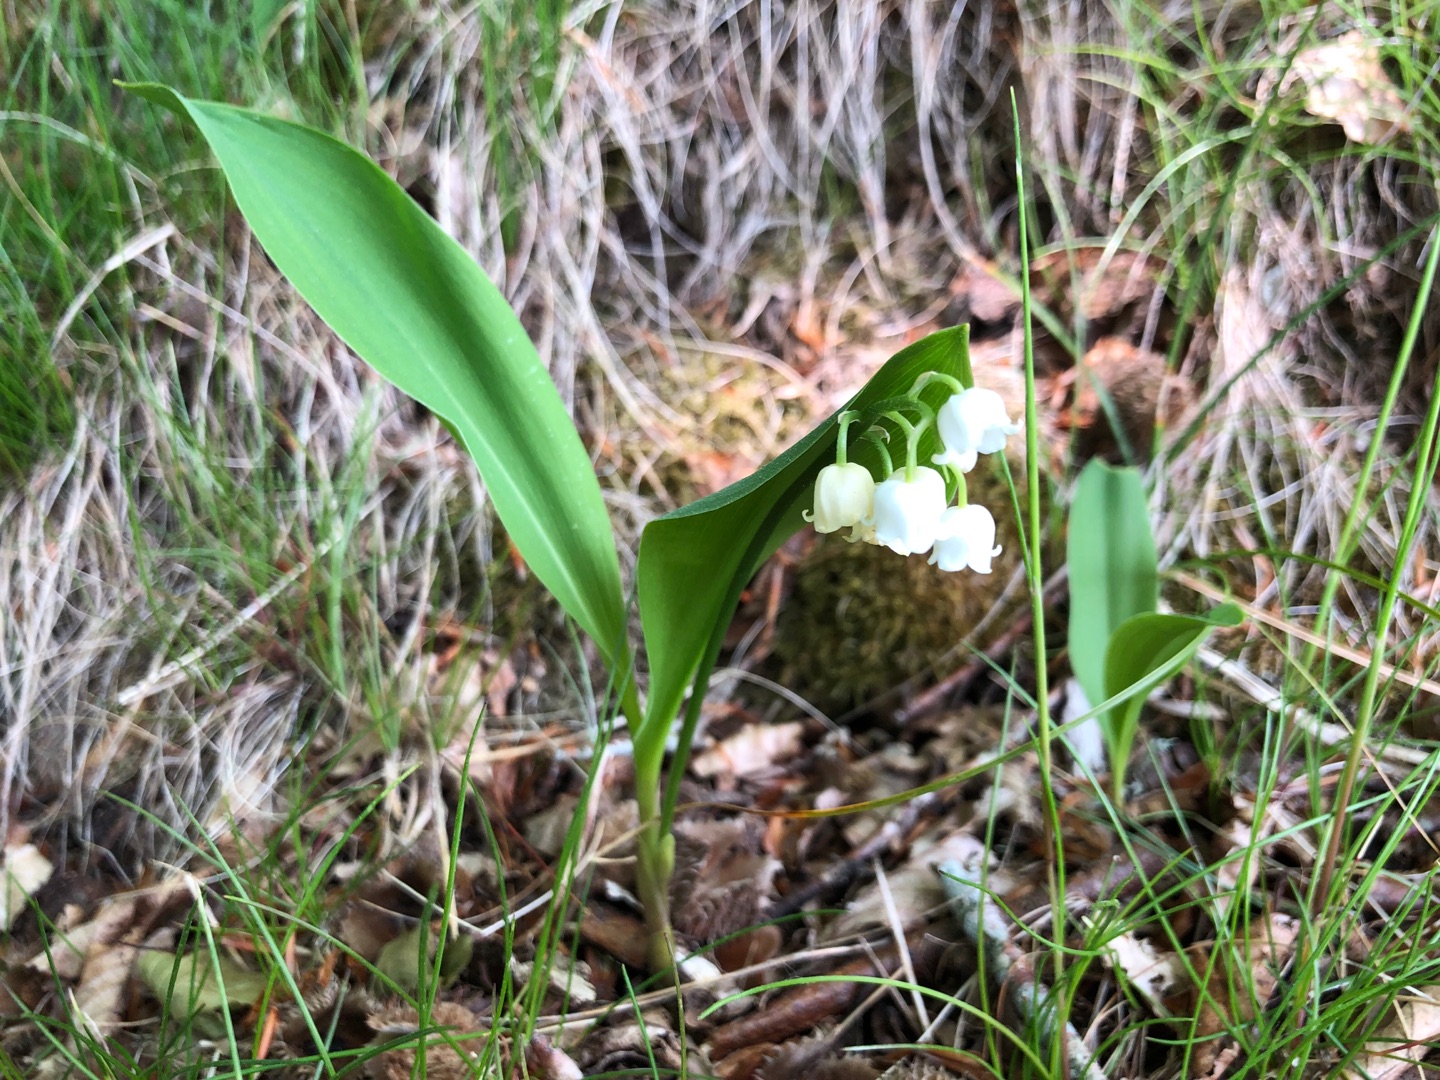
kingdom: Plantae
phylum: Tracheophyta
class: Liliopsida
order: Asparagales
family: Asparagaceae
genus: Convallaria
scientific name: Convallaria majalis
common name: Liljekonval
